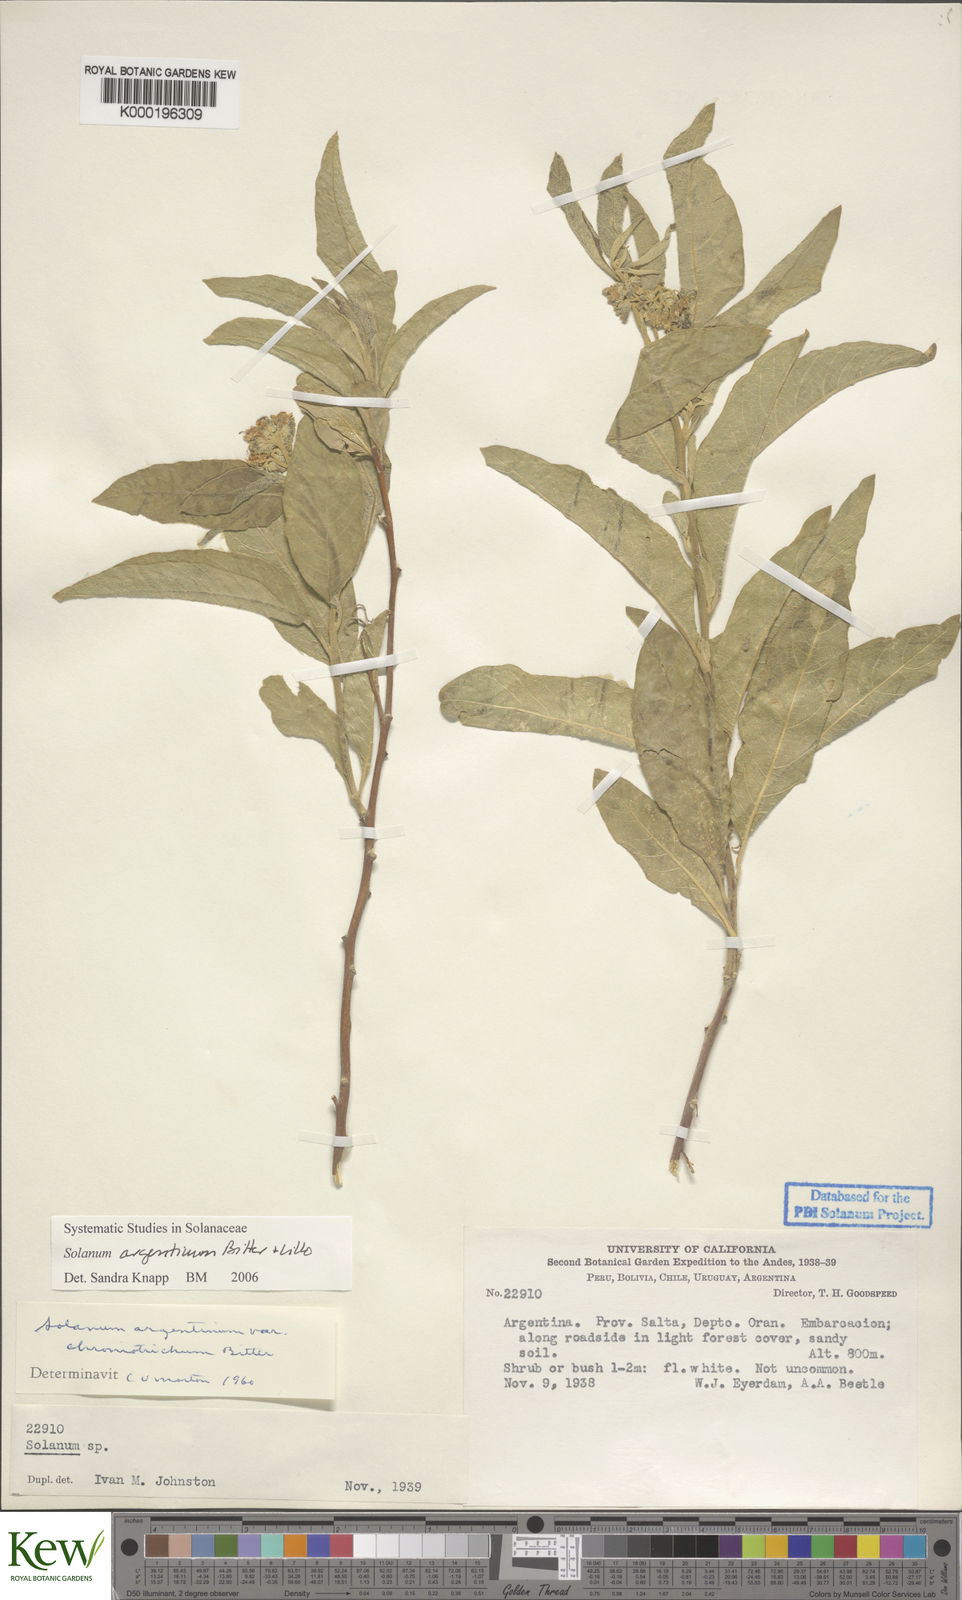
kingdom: Plantae
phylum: Tracheophyta
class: Magnoliopsida
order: Solanales
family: Solanaceae
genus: Solanum
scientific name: Solanum argentinum
